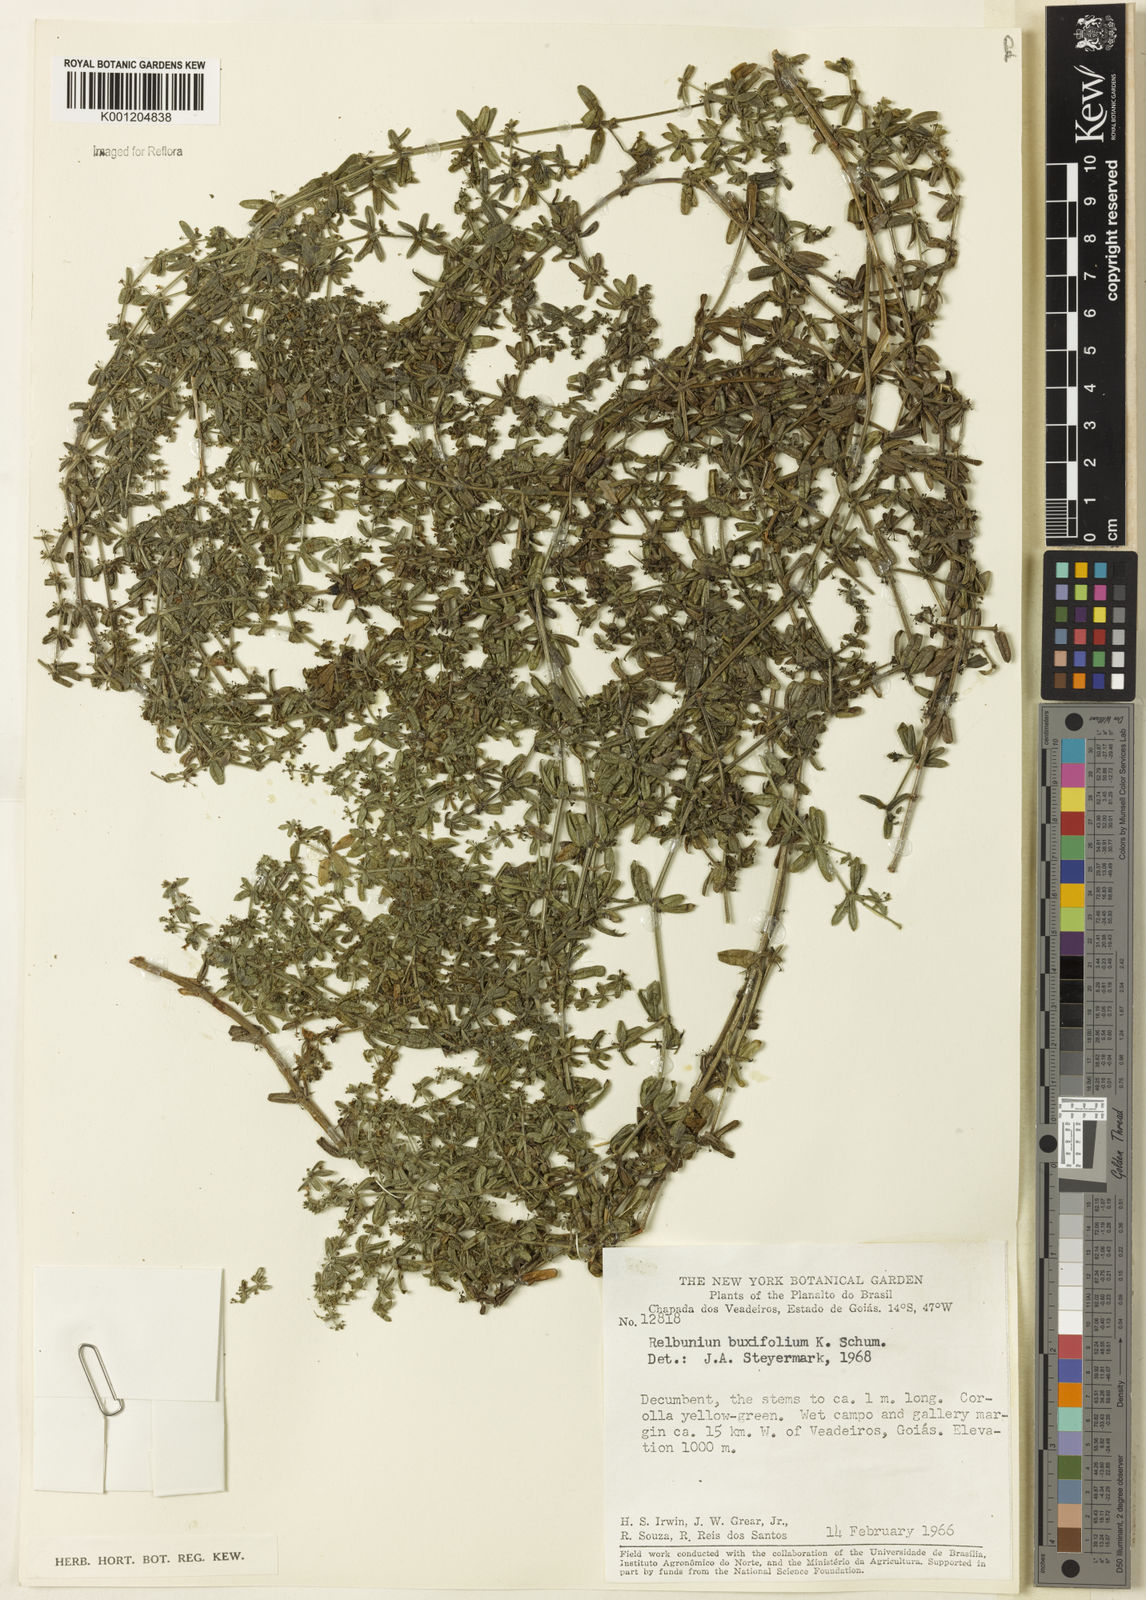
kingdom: Plantae
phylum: Tracheophyta
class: Magnoliopsida
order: Gentianales
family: Rubiaceae
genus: Galium
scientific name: Galium hypocarpium
